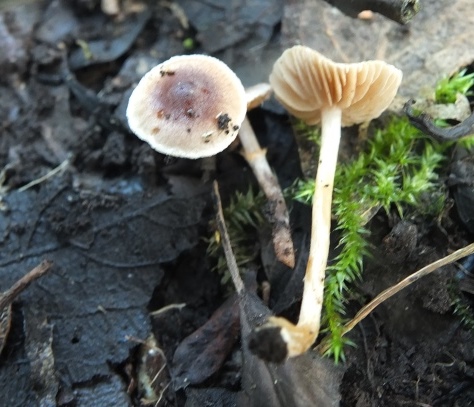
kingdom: Fungi
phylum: Basidiomycota
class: Agaricomycetes
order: Agaricales
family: Hymenogastraceae
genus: Hebeloma
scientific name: Hebeloma nigellum
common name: sortbrun tåreblad
